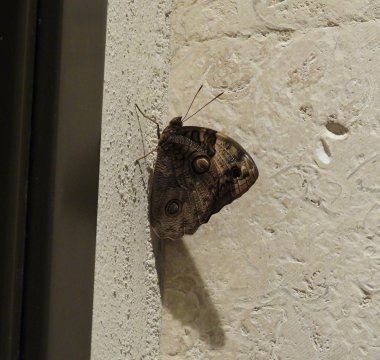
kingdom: Animalia
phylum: Arthropoda
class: Insecta
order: Lepidoptera
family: Nymphalidae
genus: Opsiphanes
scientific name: Opsiphanes cassina
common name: Split-banded Owl-Butterfly
